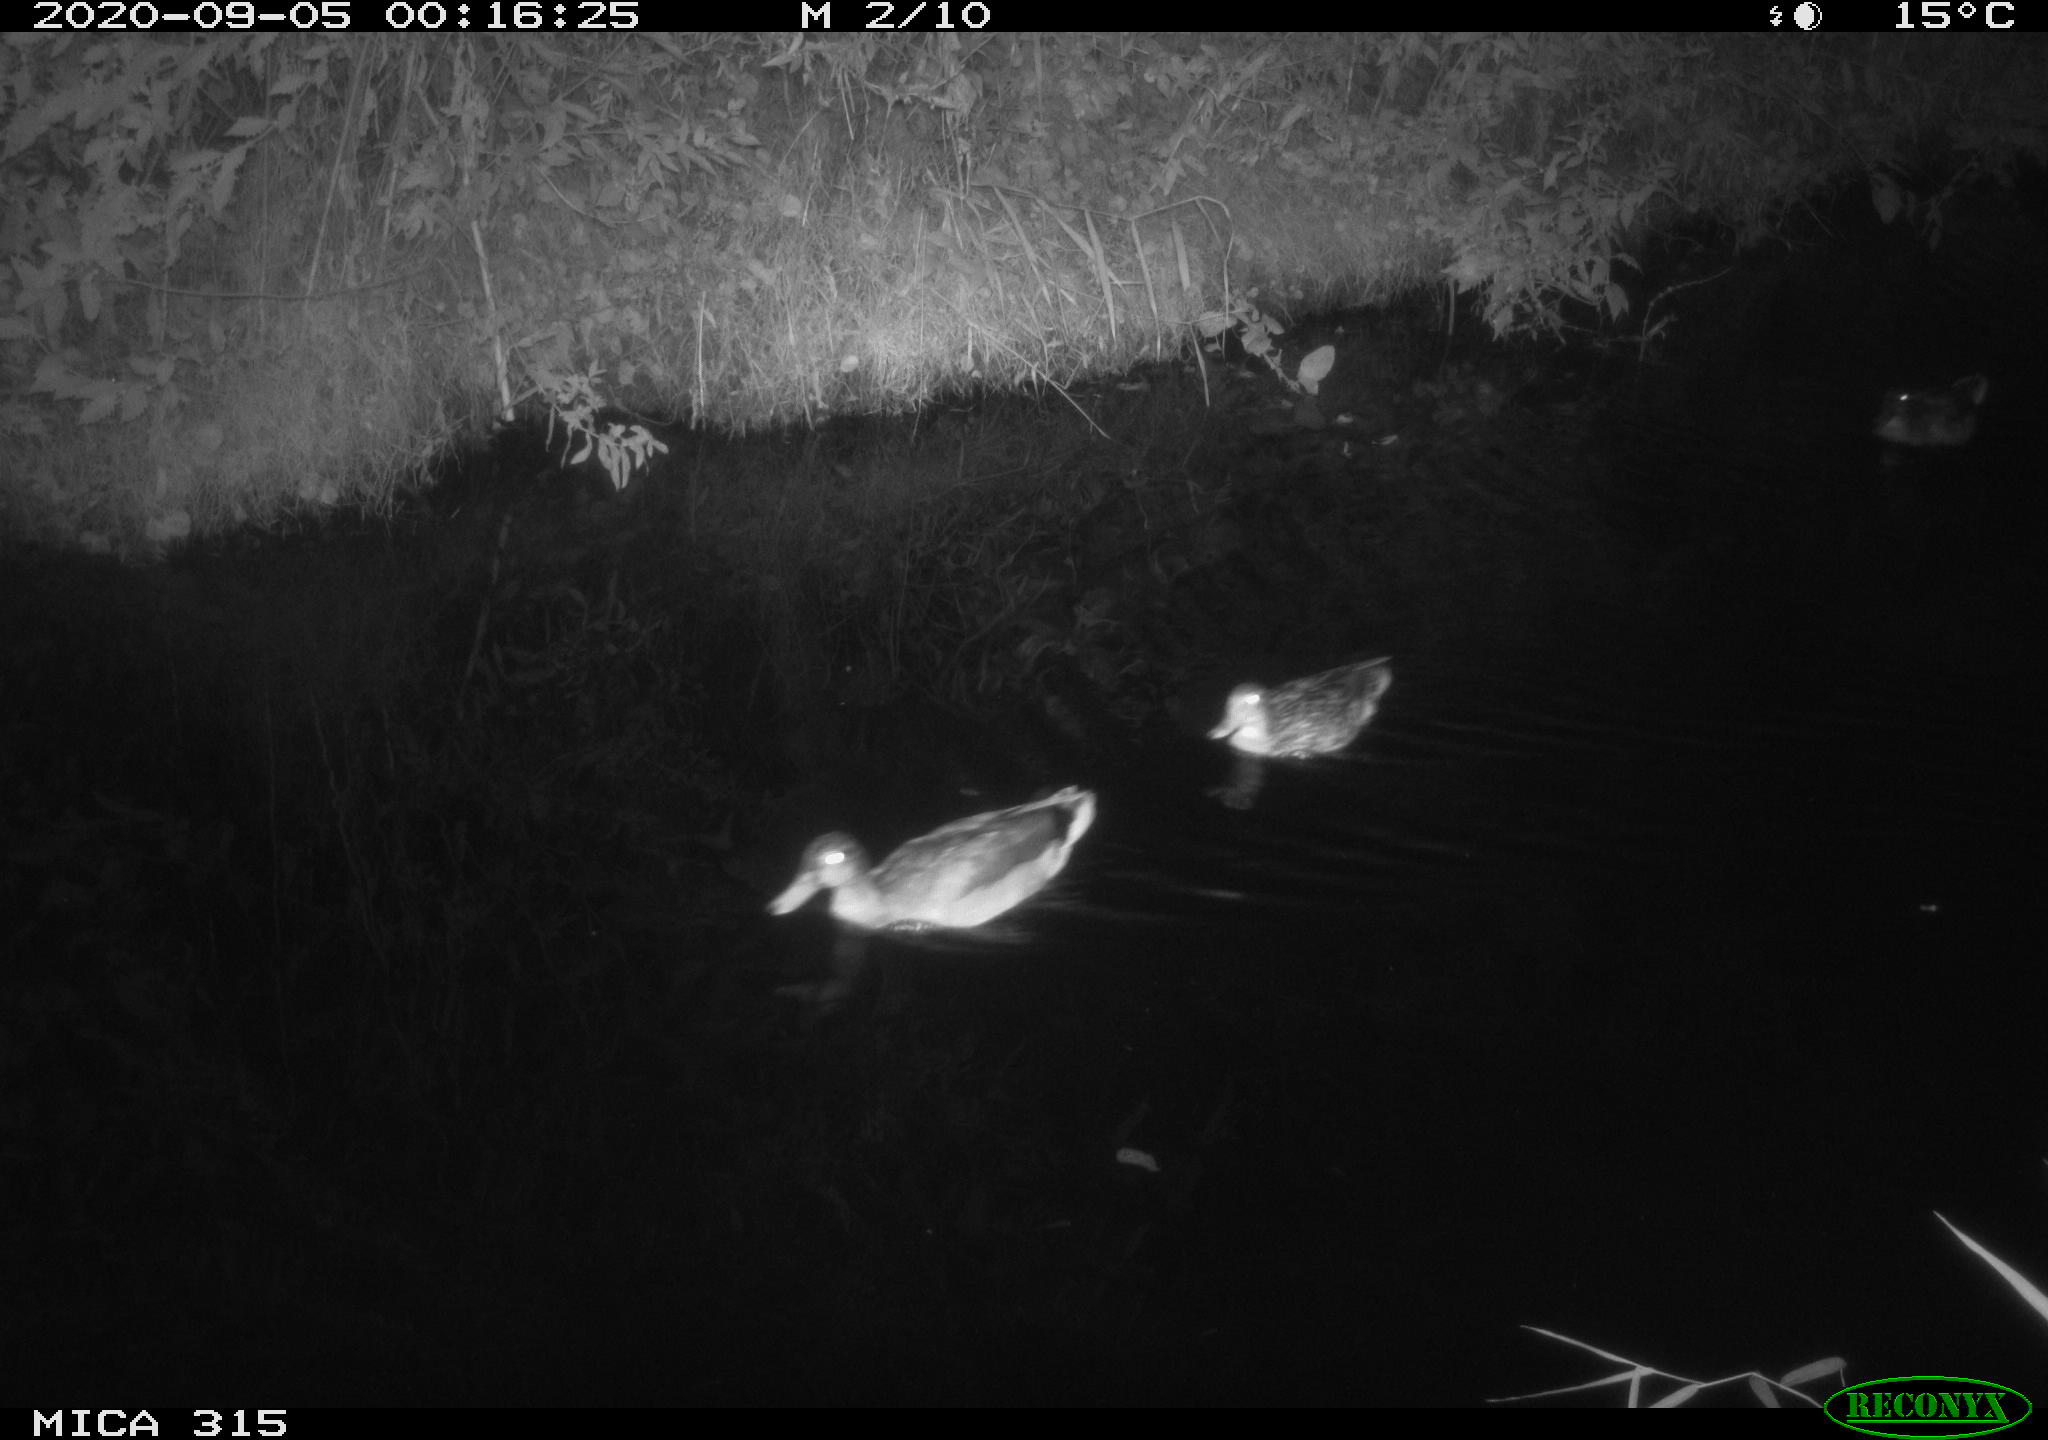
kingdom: Animalia
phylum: Chordata
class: Aves
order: Anseriformes
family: Anatidae
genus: Anas
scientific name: Anas platyrhynchos
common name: Mallard
